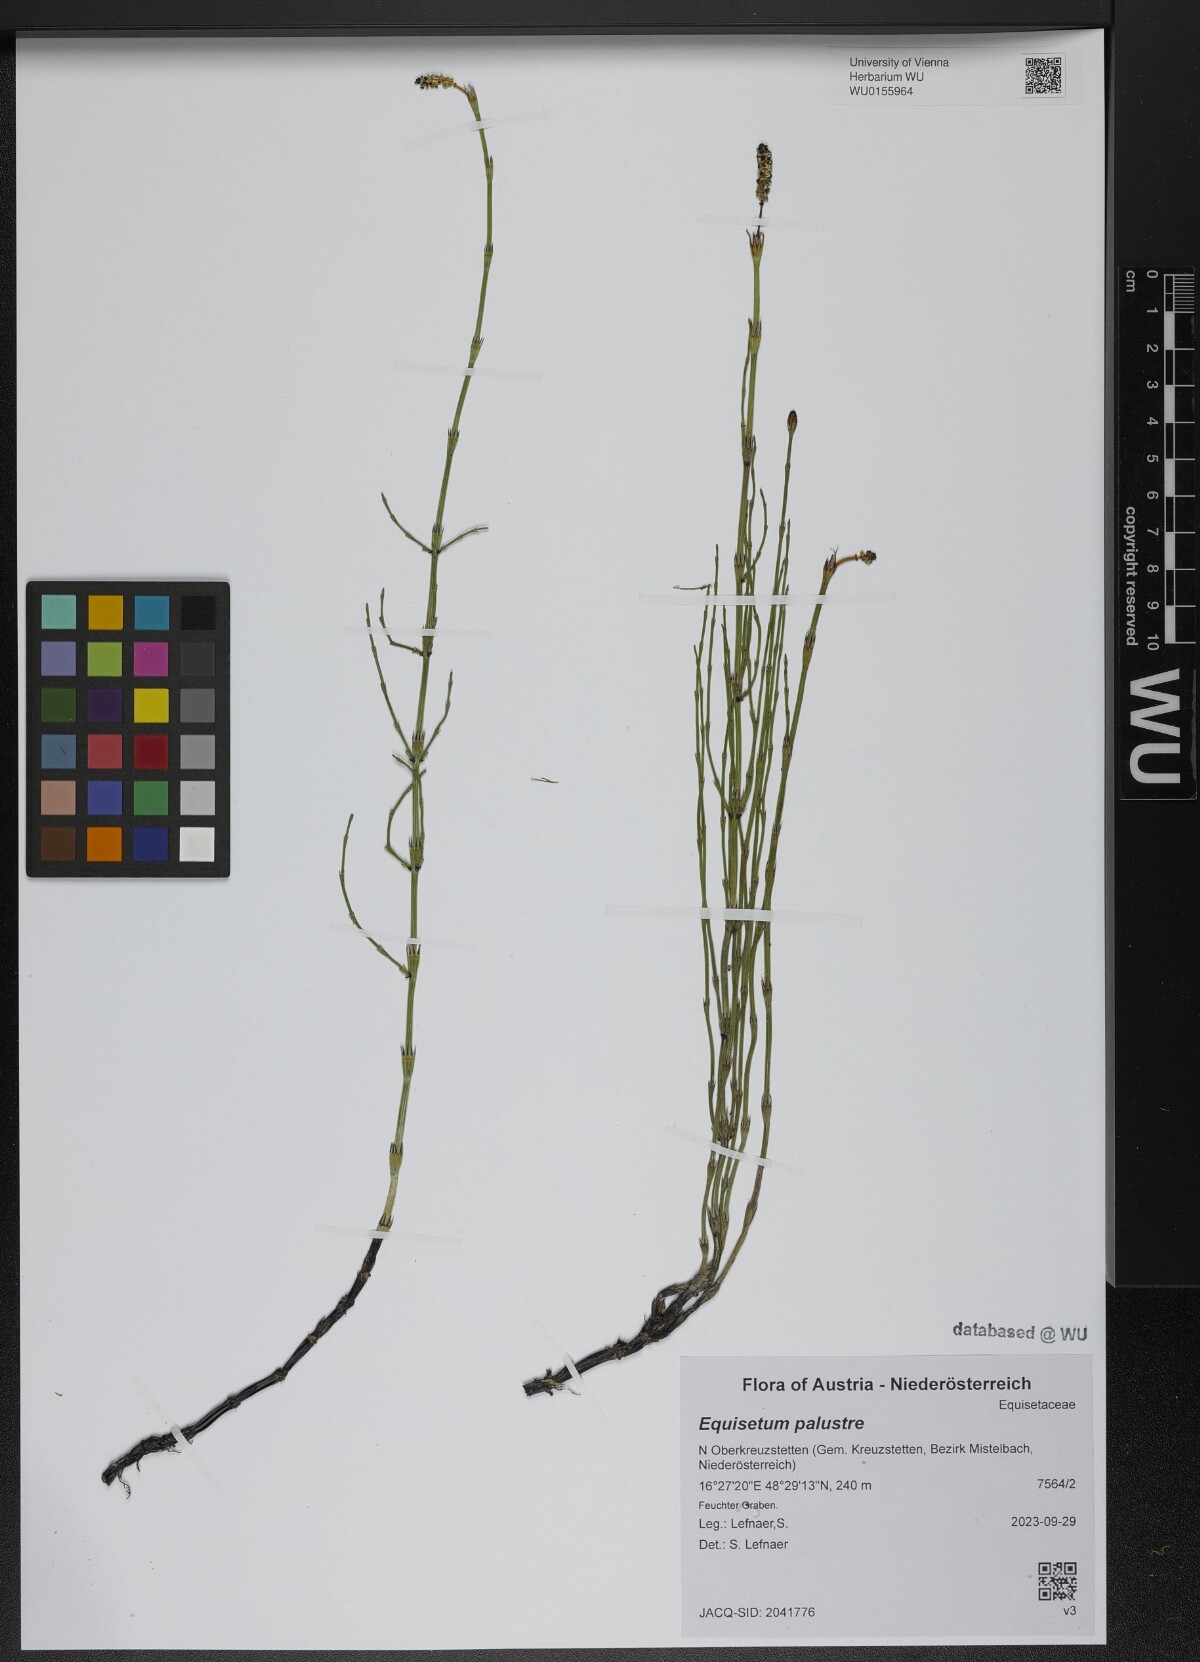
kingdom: Plantae
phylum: Tracheophyta
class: Polypodiopsida
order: Equisetales
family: Equisetaceae
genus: Equisetum
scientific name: Equisetum palustre
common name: Marsh horsetail
